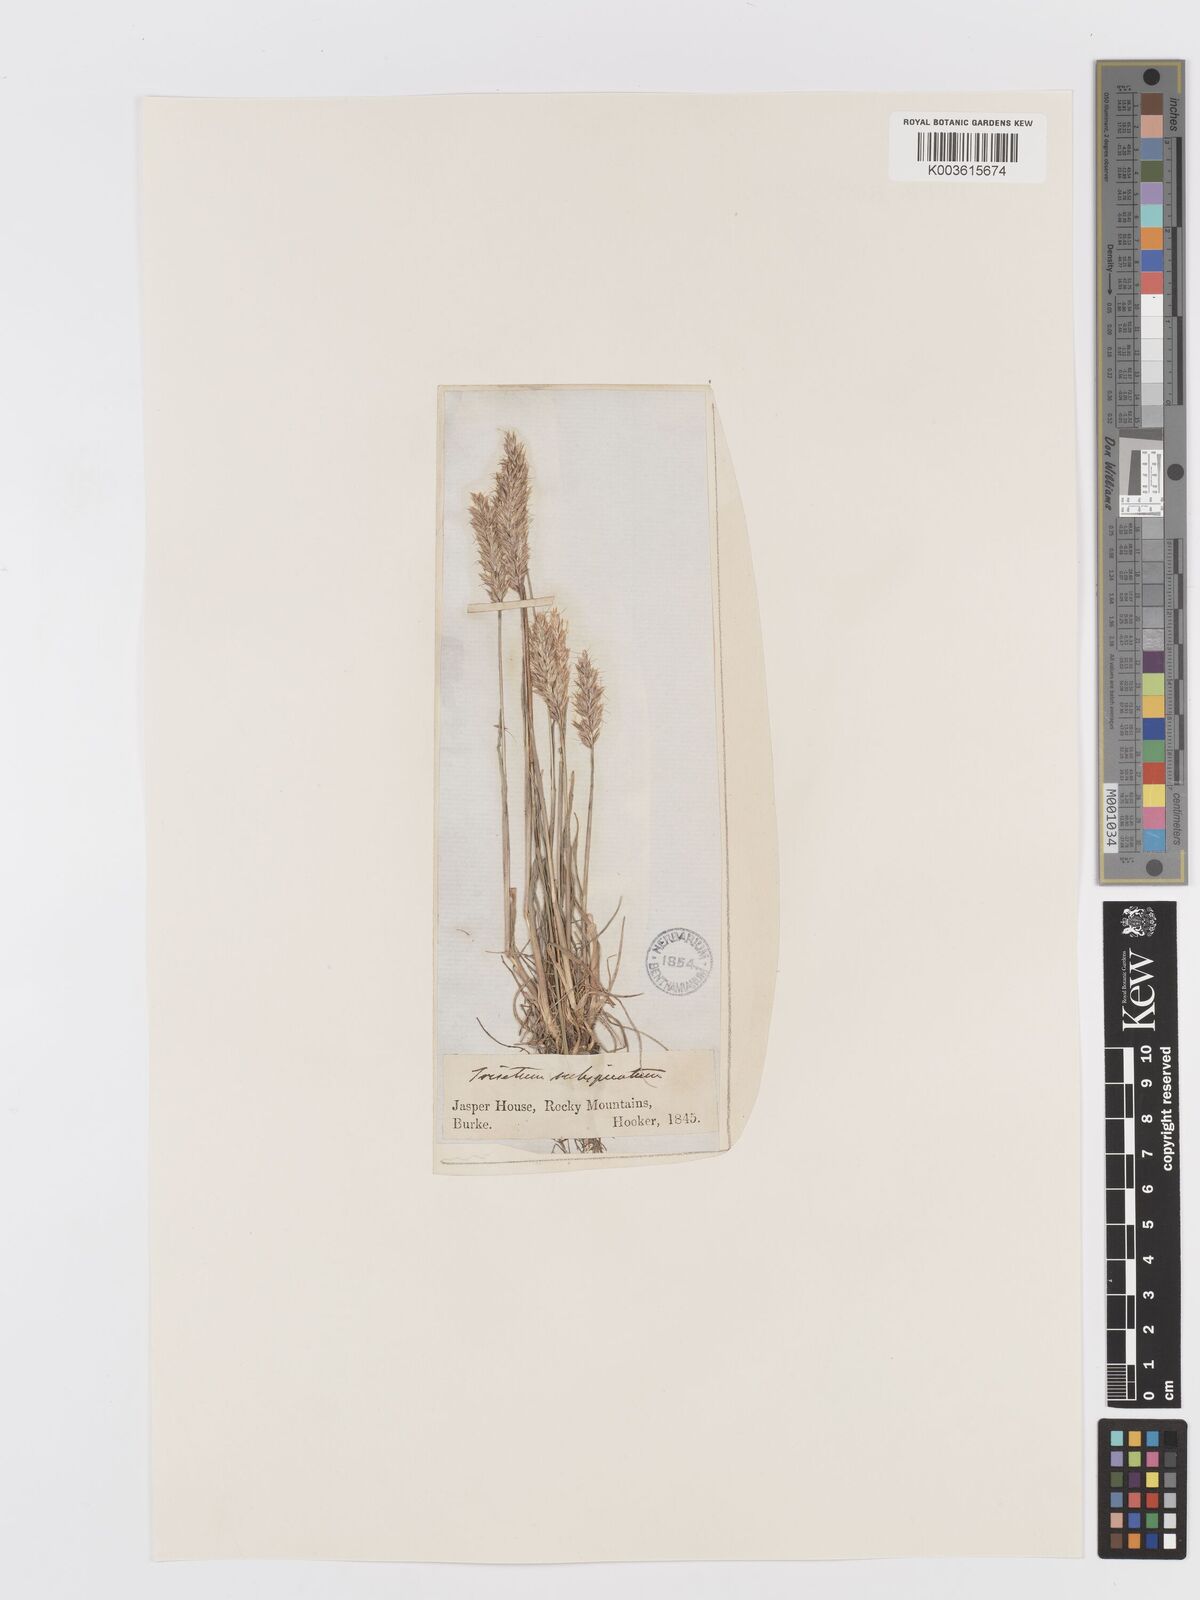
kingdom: Plantae
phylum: Tracheophyta
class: Liliopsida
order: Poales
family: Poaceae
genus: Koeleria
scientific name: Koeleria spicata
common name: Mountain trisetum
